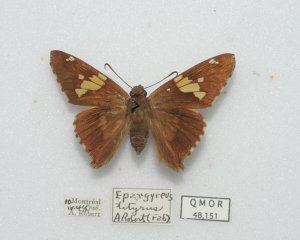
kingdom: Animalia
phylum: Arthropoda
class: Insecta
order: Lepidoptera
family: Hesperiidae
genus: Epargyreus
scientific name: Epargyreus clarus
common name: Silver-spotted Skipper
